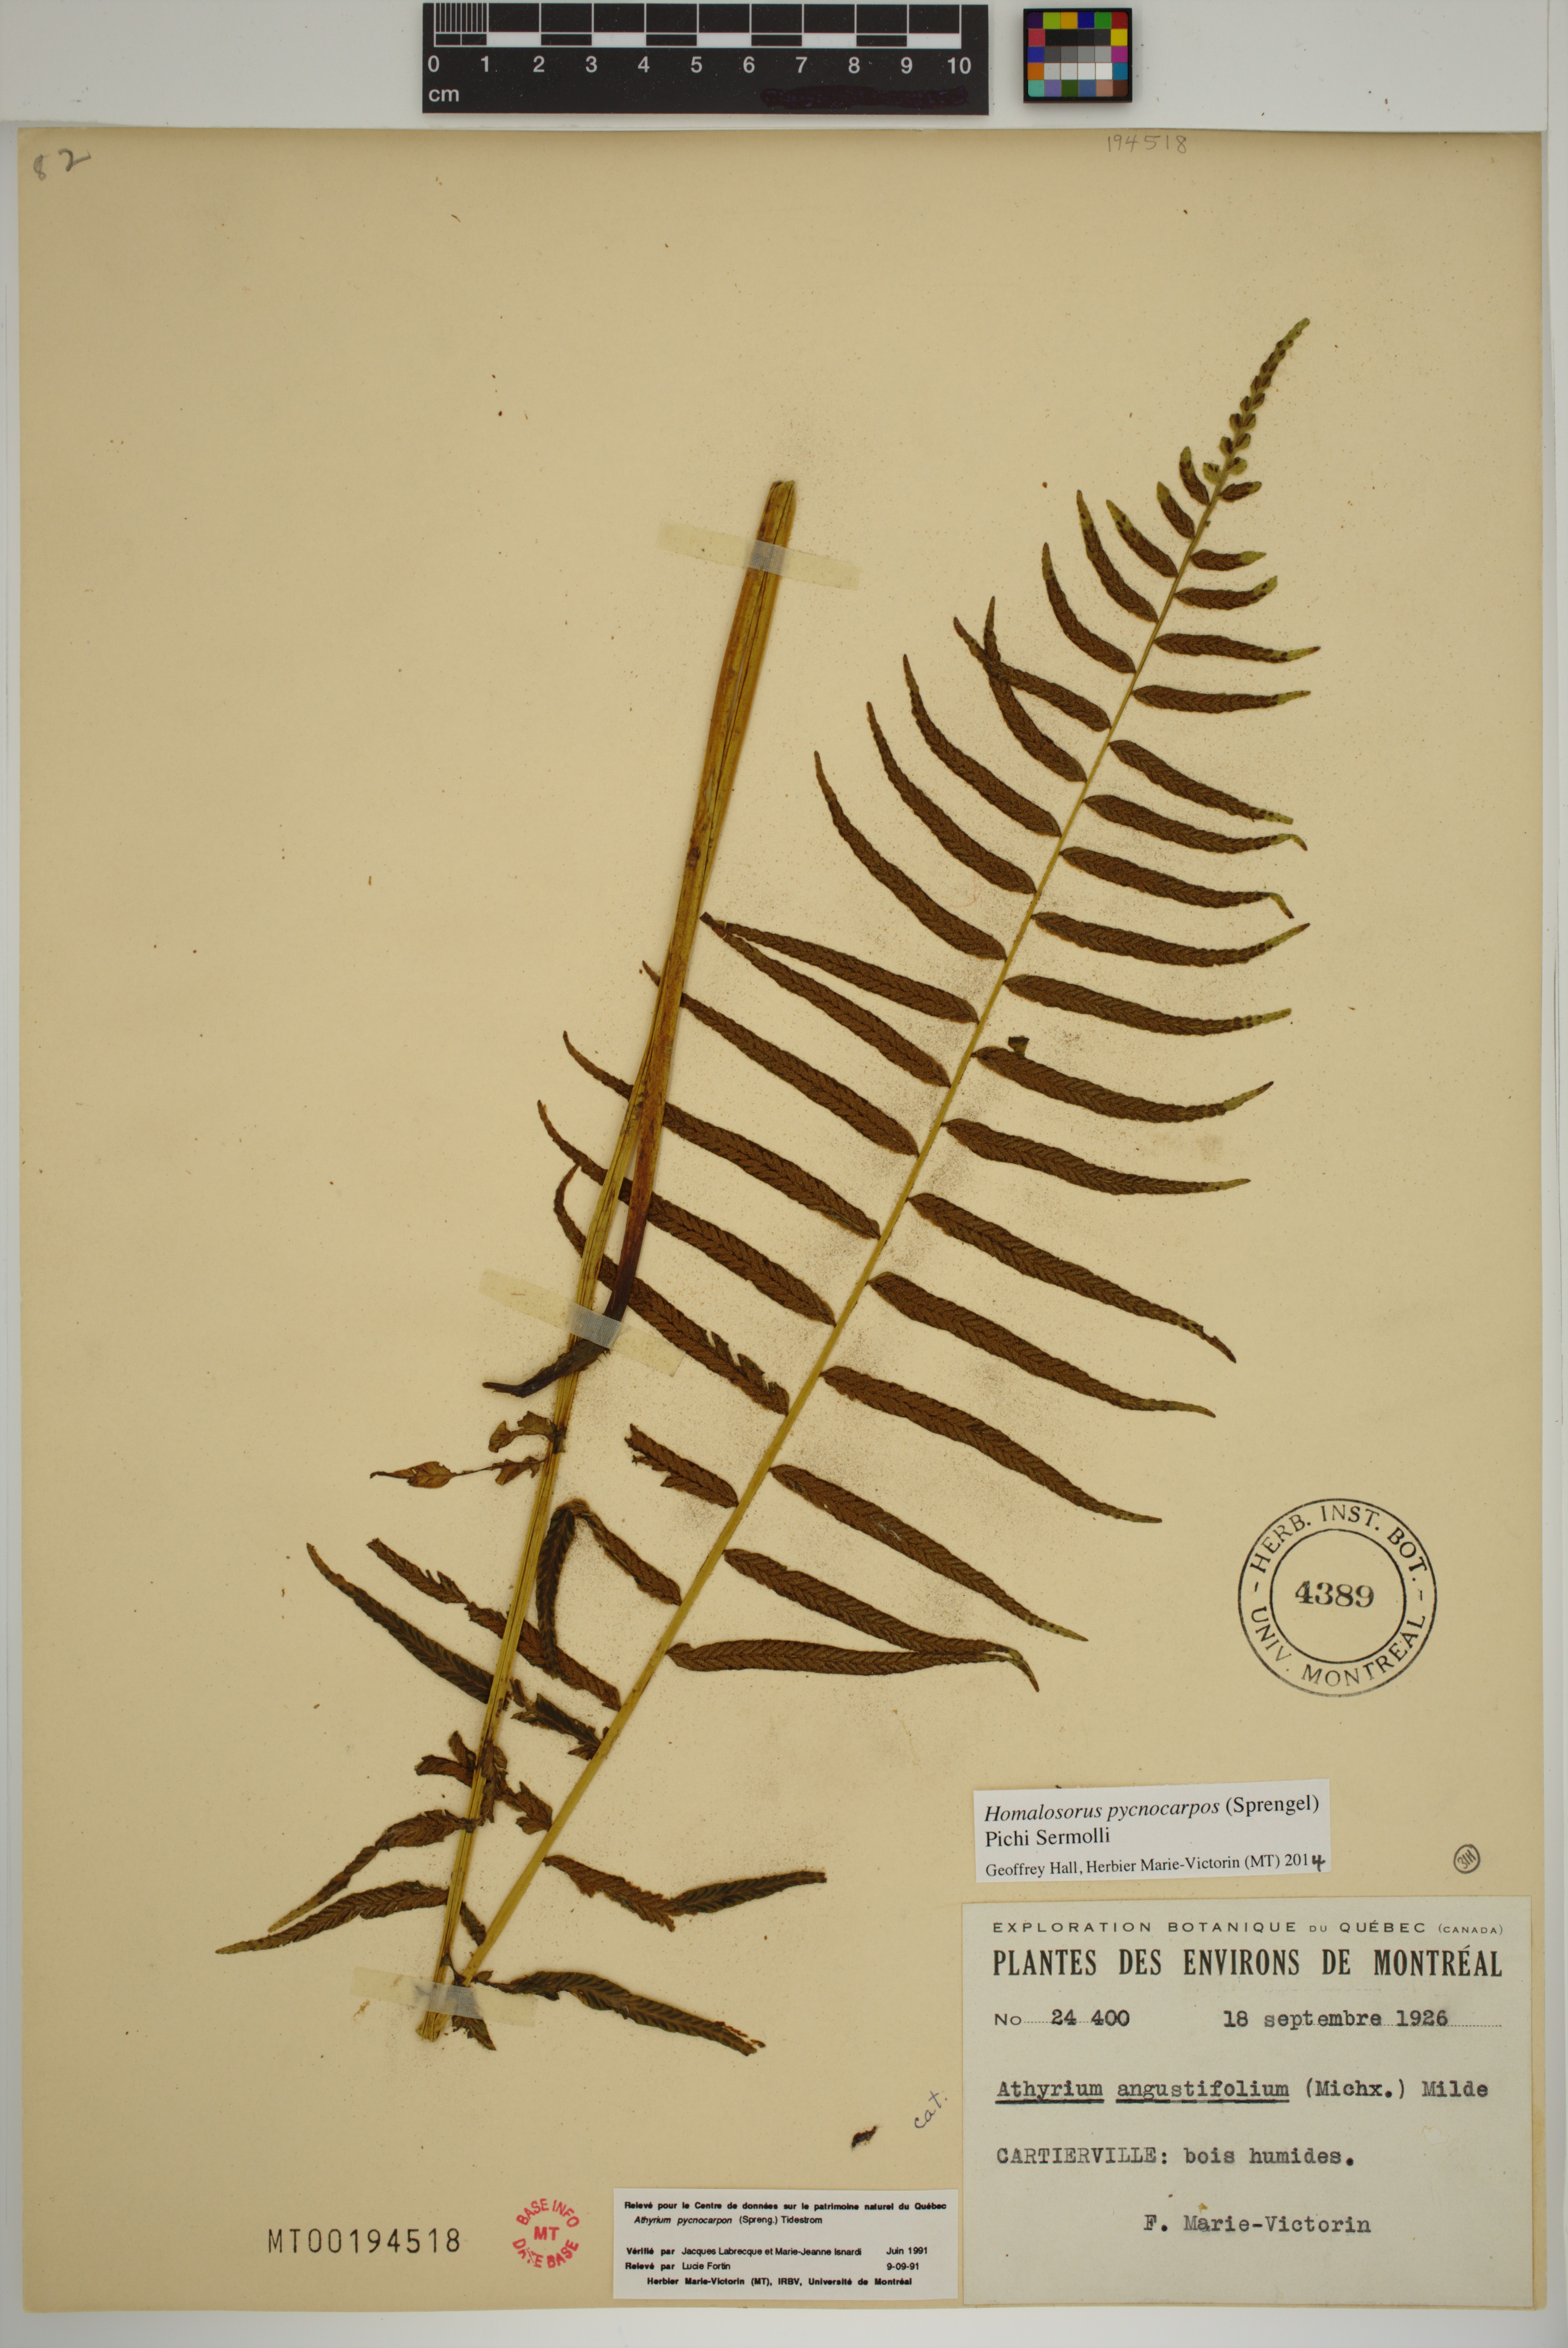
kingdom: Plantae
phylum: Tracheophyta
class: Polypodiopsida
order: Polypodiales
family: Diplaziopsidaceae
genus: Homalosorus
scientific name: Homalosorus pycnocarpos
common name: Glade fern
